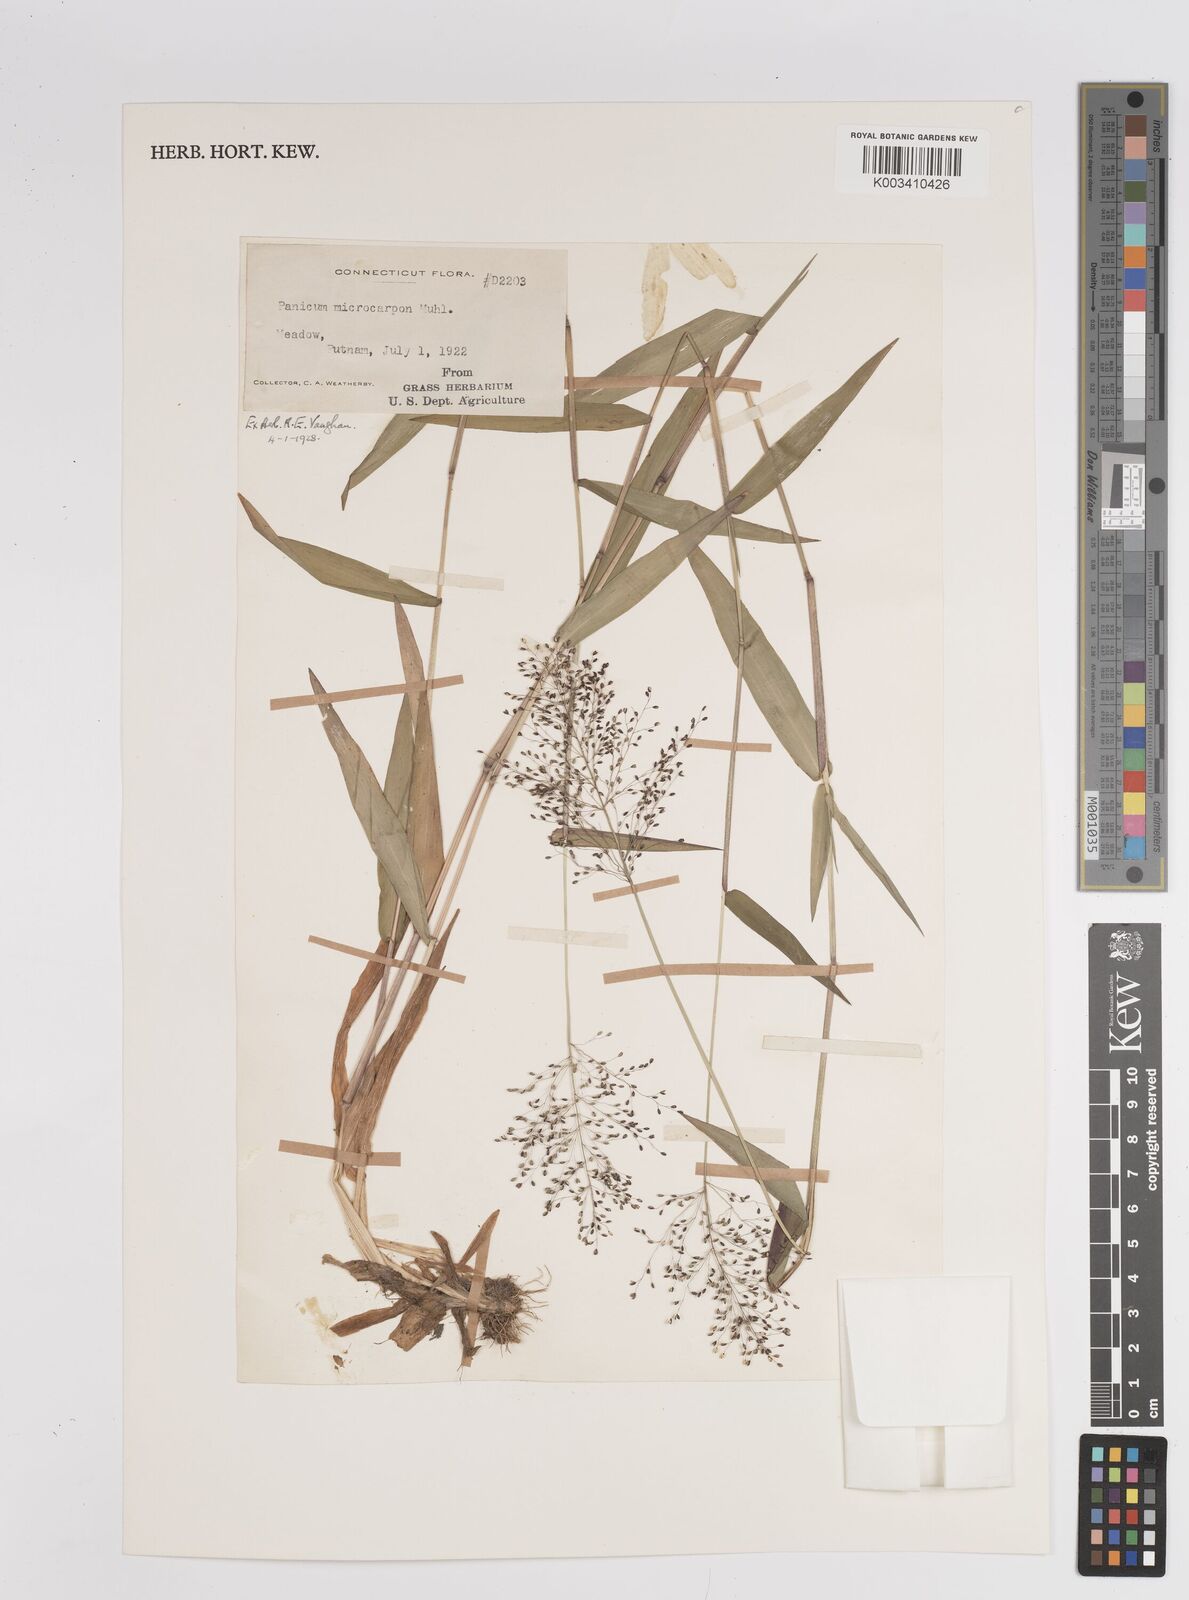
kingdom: Plantae
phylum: Tracheophyta
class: Liliopsida
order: Poales
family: Poaceae
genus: Dichanthelium
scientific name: Dichanthelium trifolium
